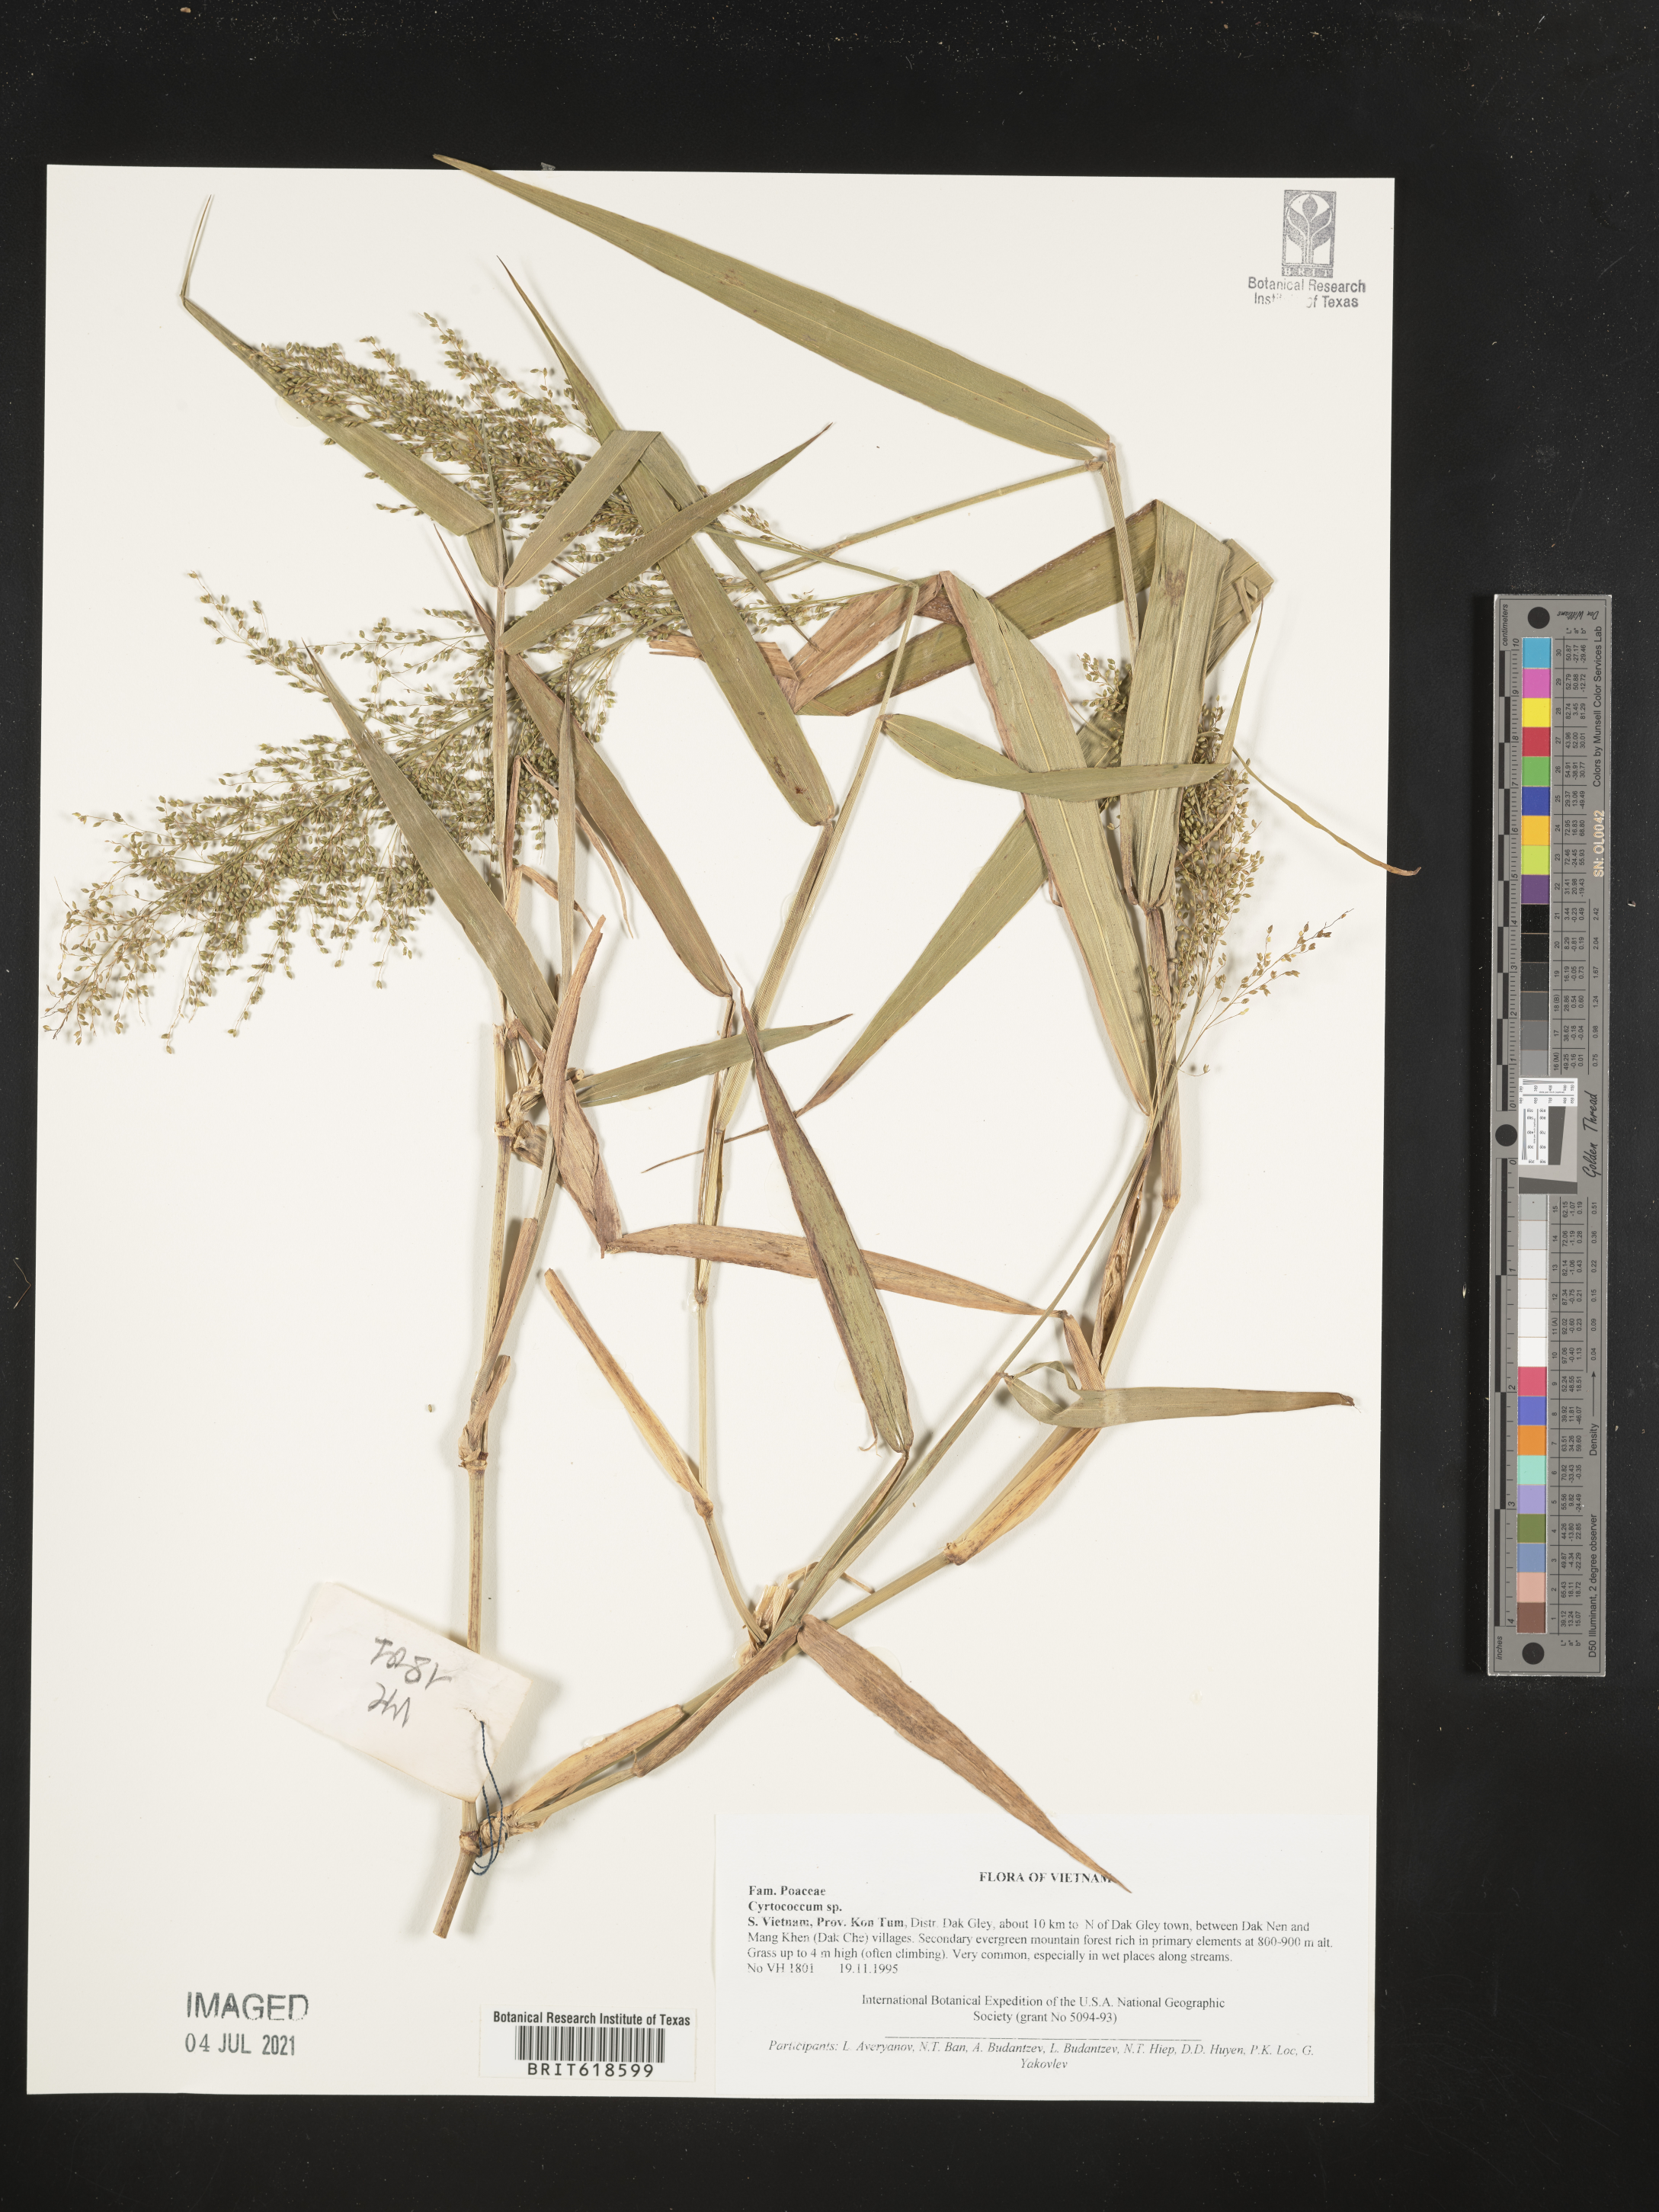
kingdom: Plantae
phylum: Tracheophyta
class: Liliopsida
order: Poales
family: Poaceae
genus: Cyrtococcum
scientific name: Cyrtococcum
